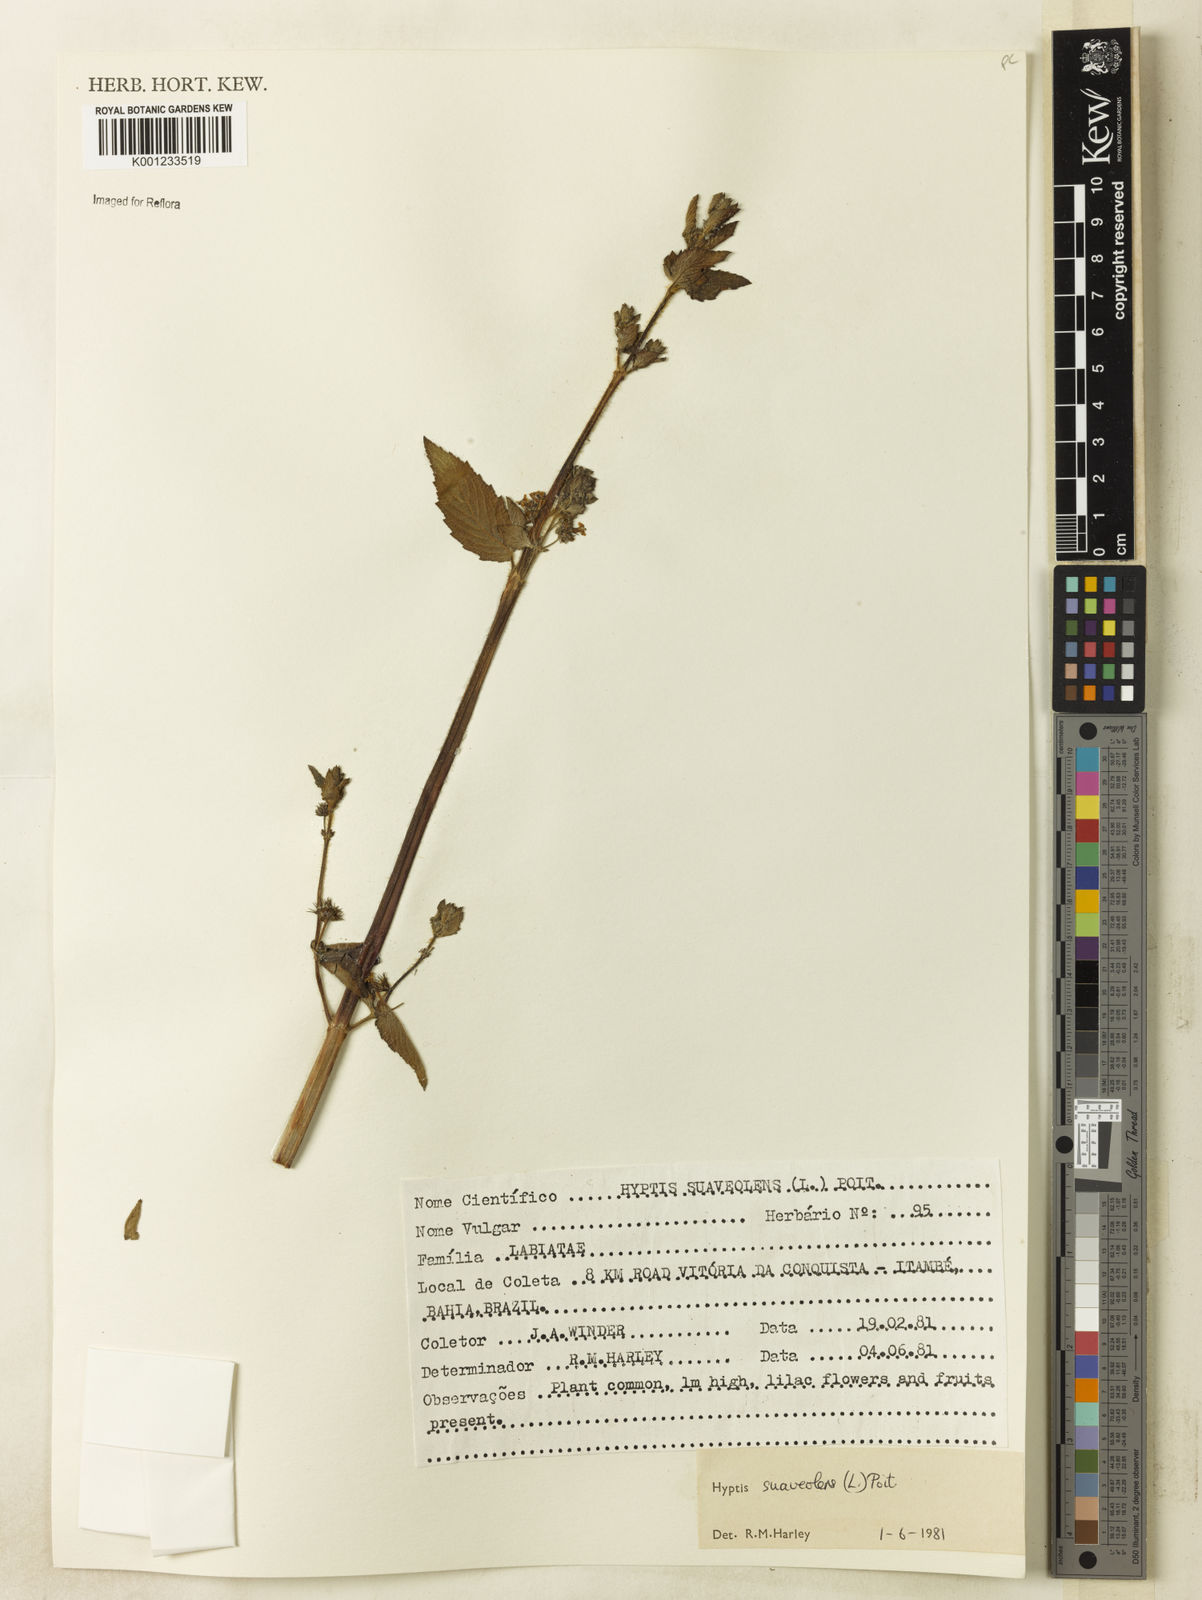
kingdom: Plantae
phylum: Tracheophyta
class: Magnoliopsida
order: Lamiales
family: Lamiaceae
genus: Mesosphaerum
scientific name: Mesosphaerum suaveolens
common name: Pignut
